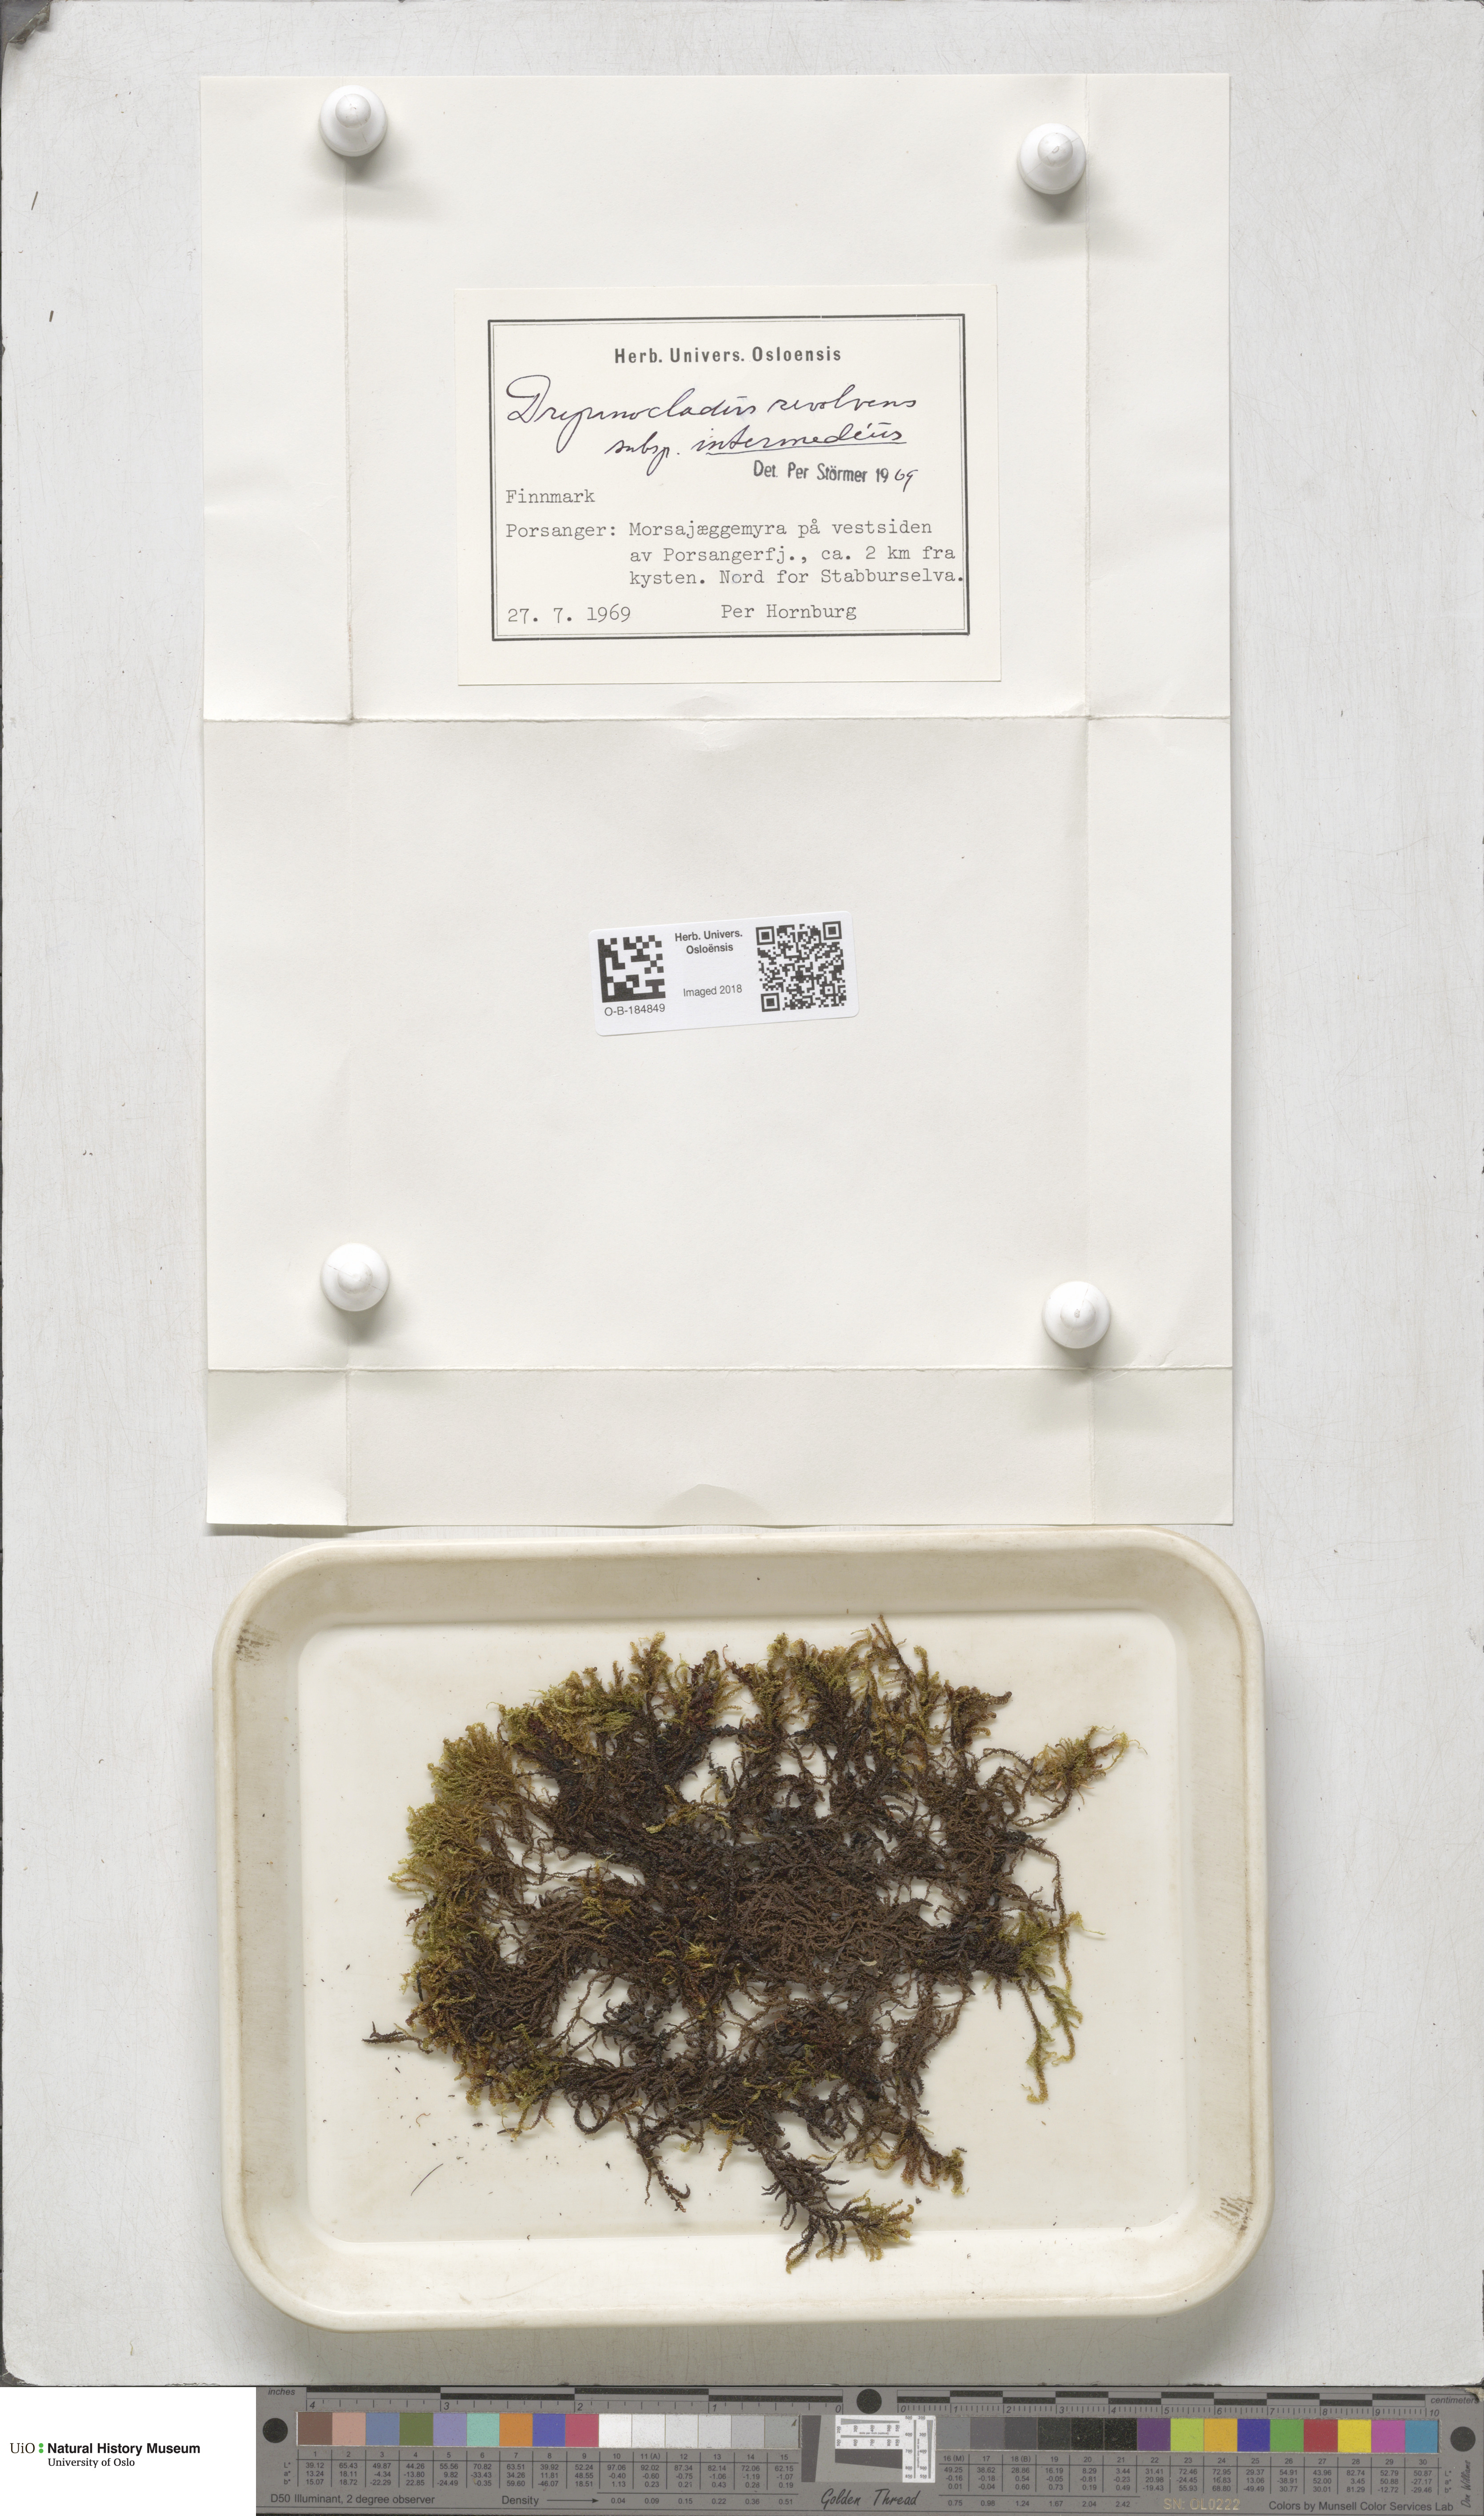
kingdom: Plantae
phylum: Bryophyta
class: Bryopsida
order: Hypnales
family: Scorpidiaceae
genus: Scorpidium
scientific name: Scorpidium cossonii
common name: Cosson's hook moss
